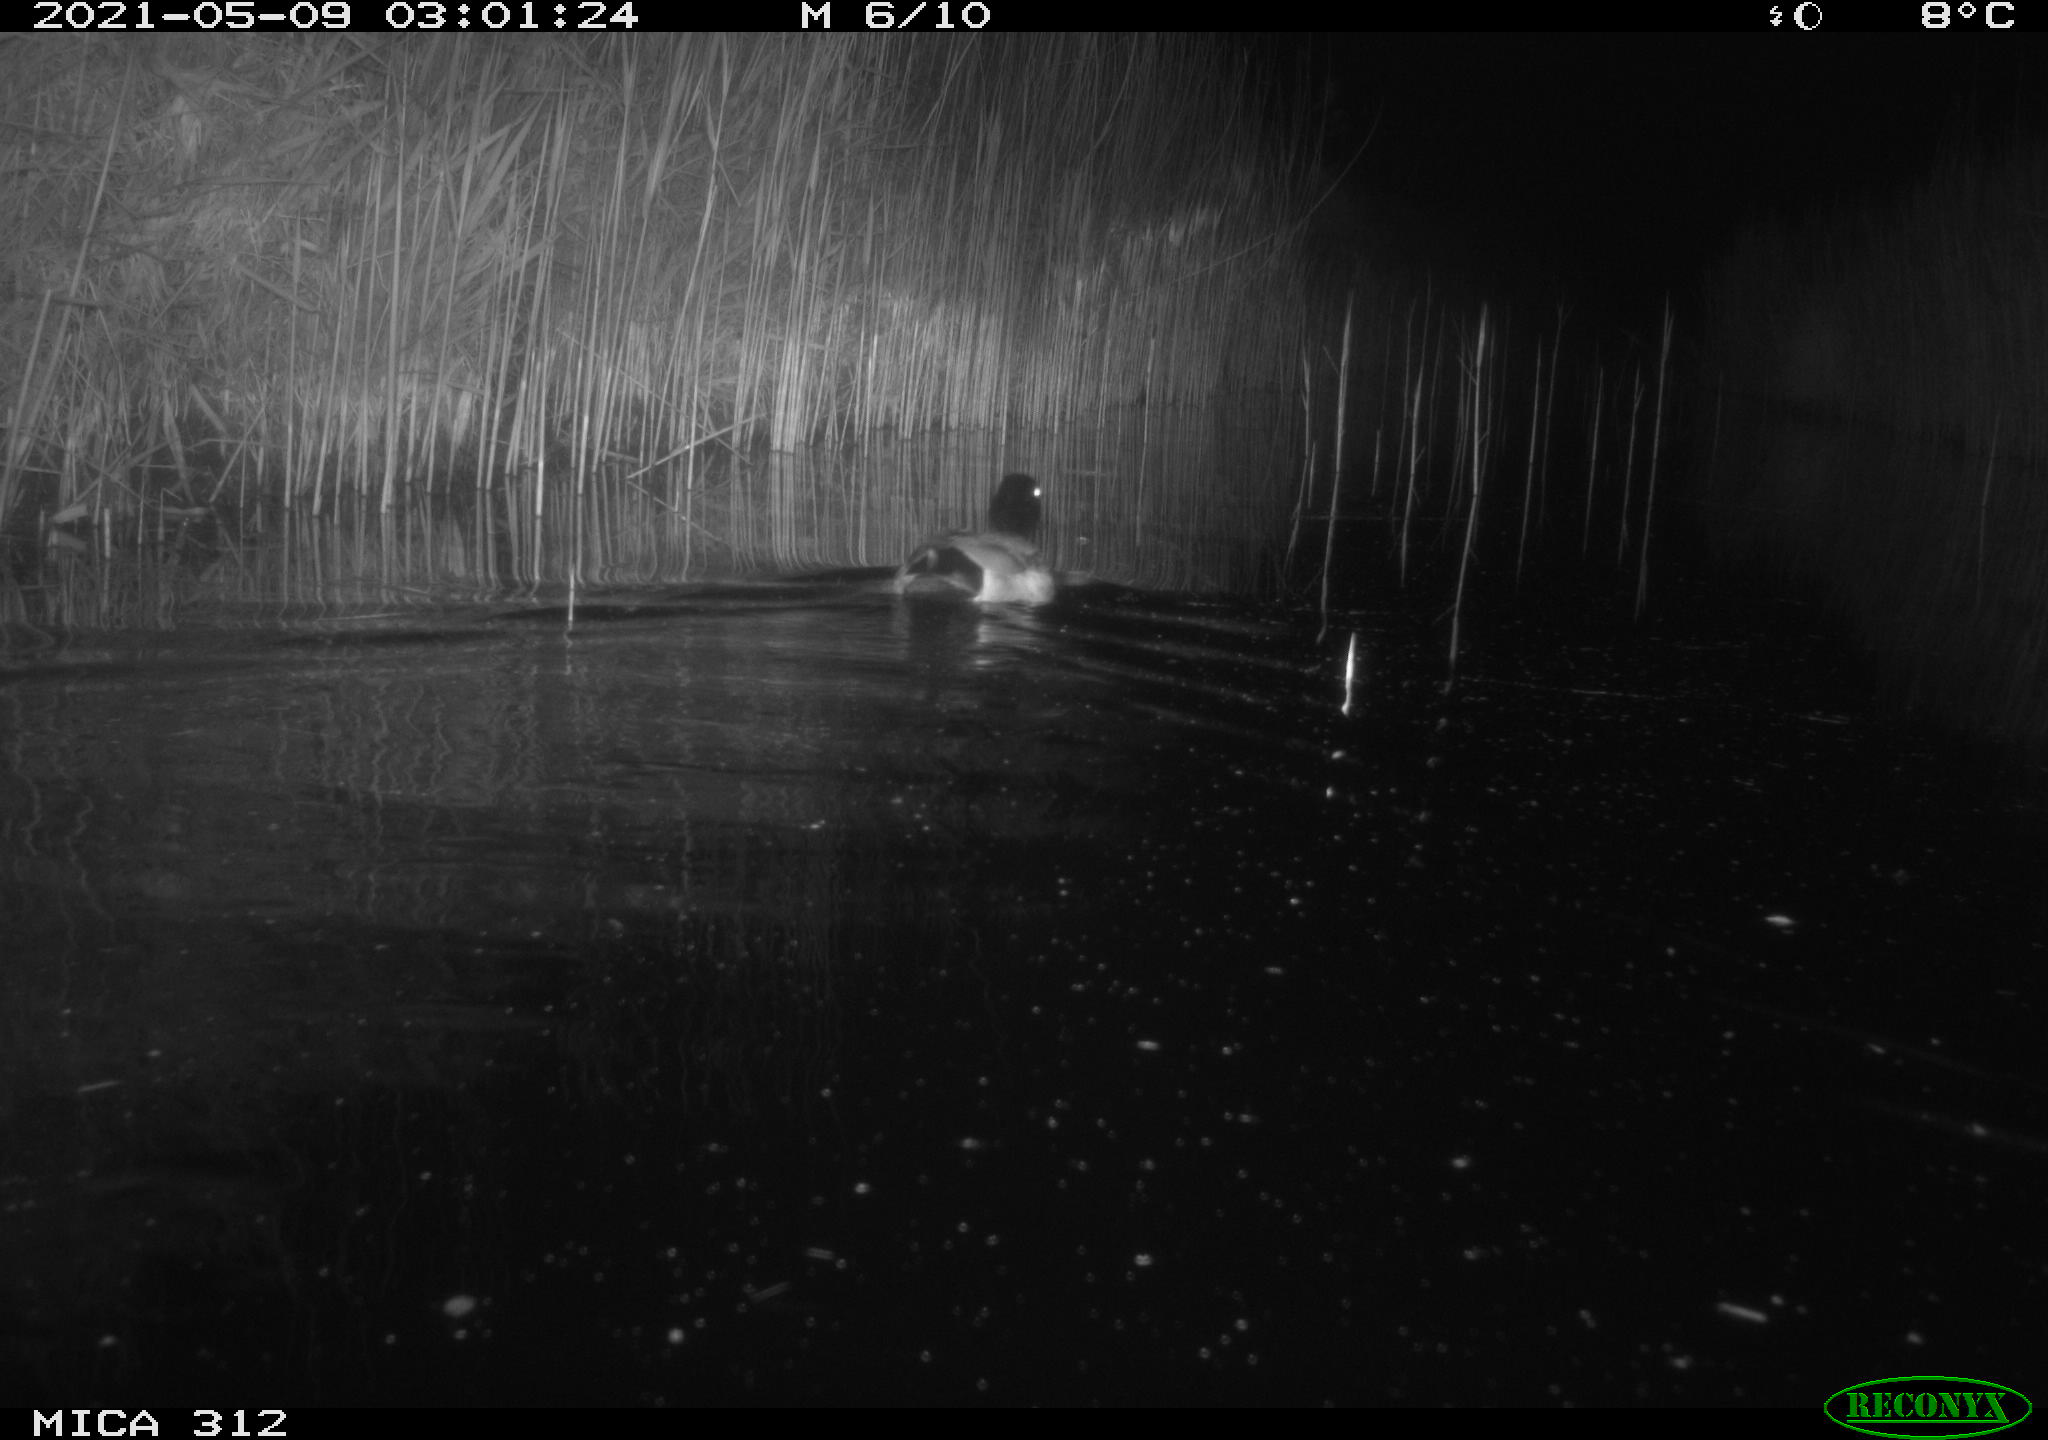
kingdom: Animalia
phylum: Chordata
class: Mammalia
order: Rodentia
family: Muridae
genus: Rattus
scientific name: Rattus norvegicus
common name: Brown rat
